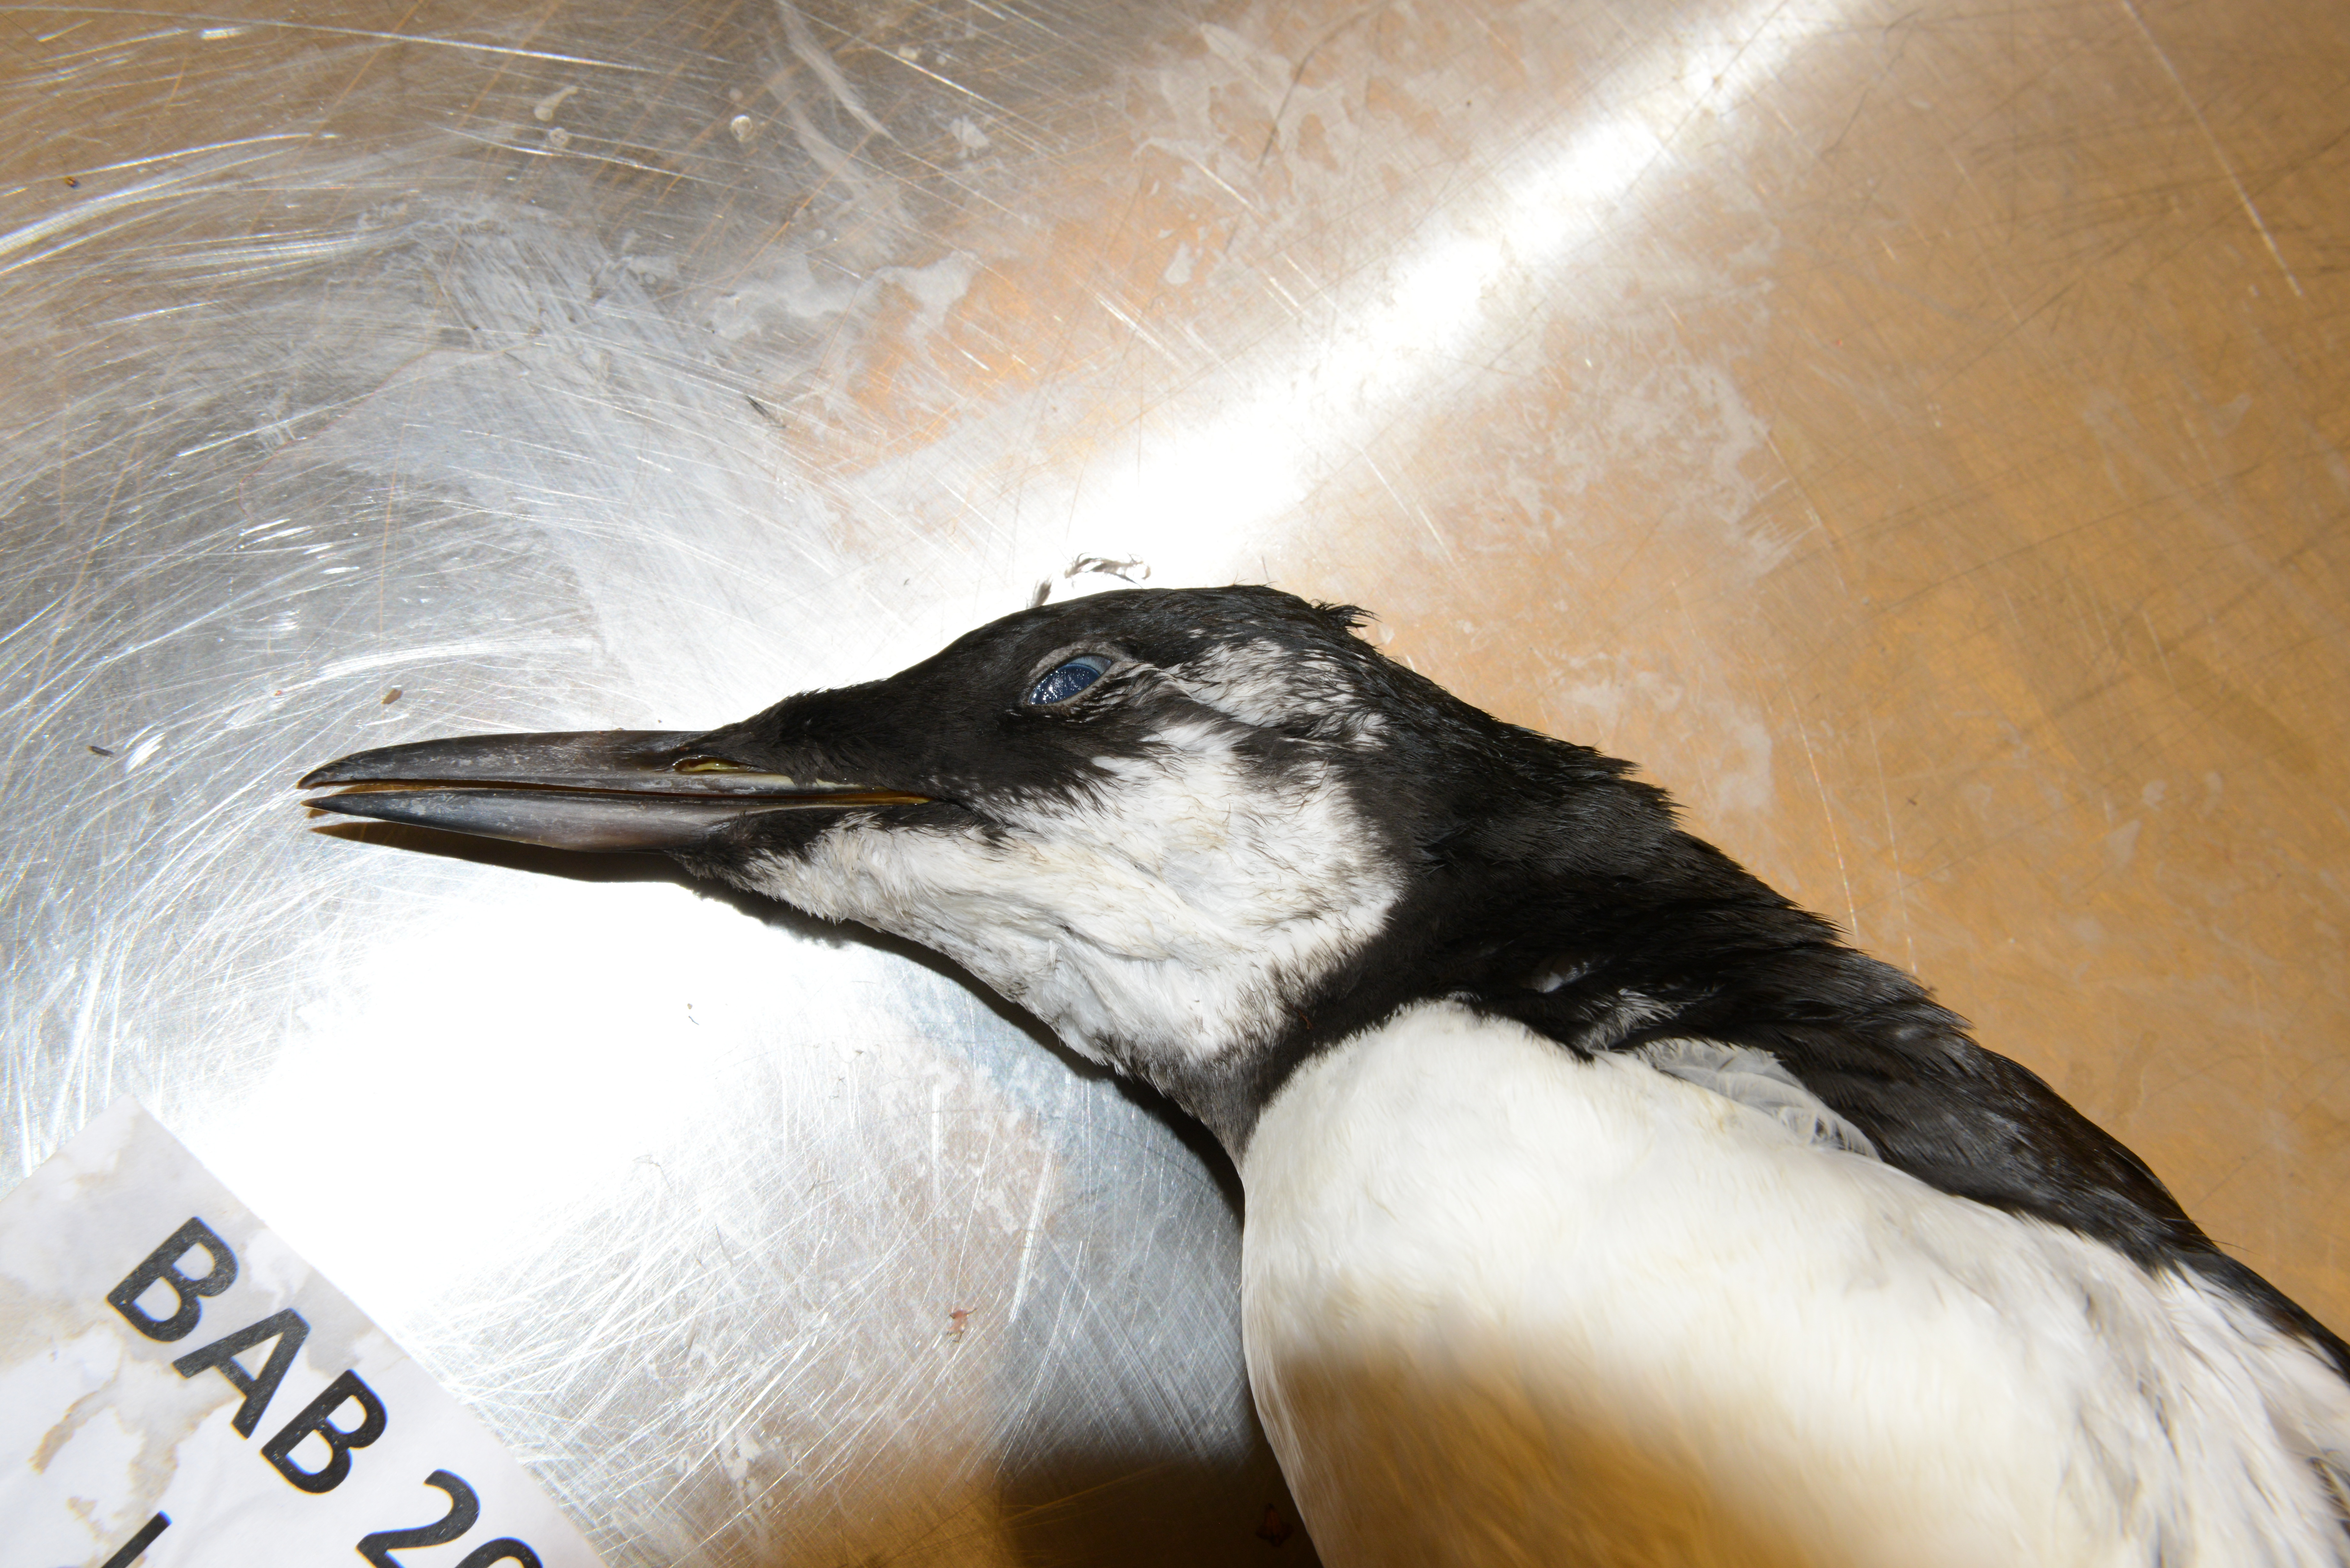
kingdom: Animalia
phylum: Chordata
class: Aves
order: Charadriiformes
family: Alcidae
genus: Uria
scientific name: Uria aalge
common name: Common murre
